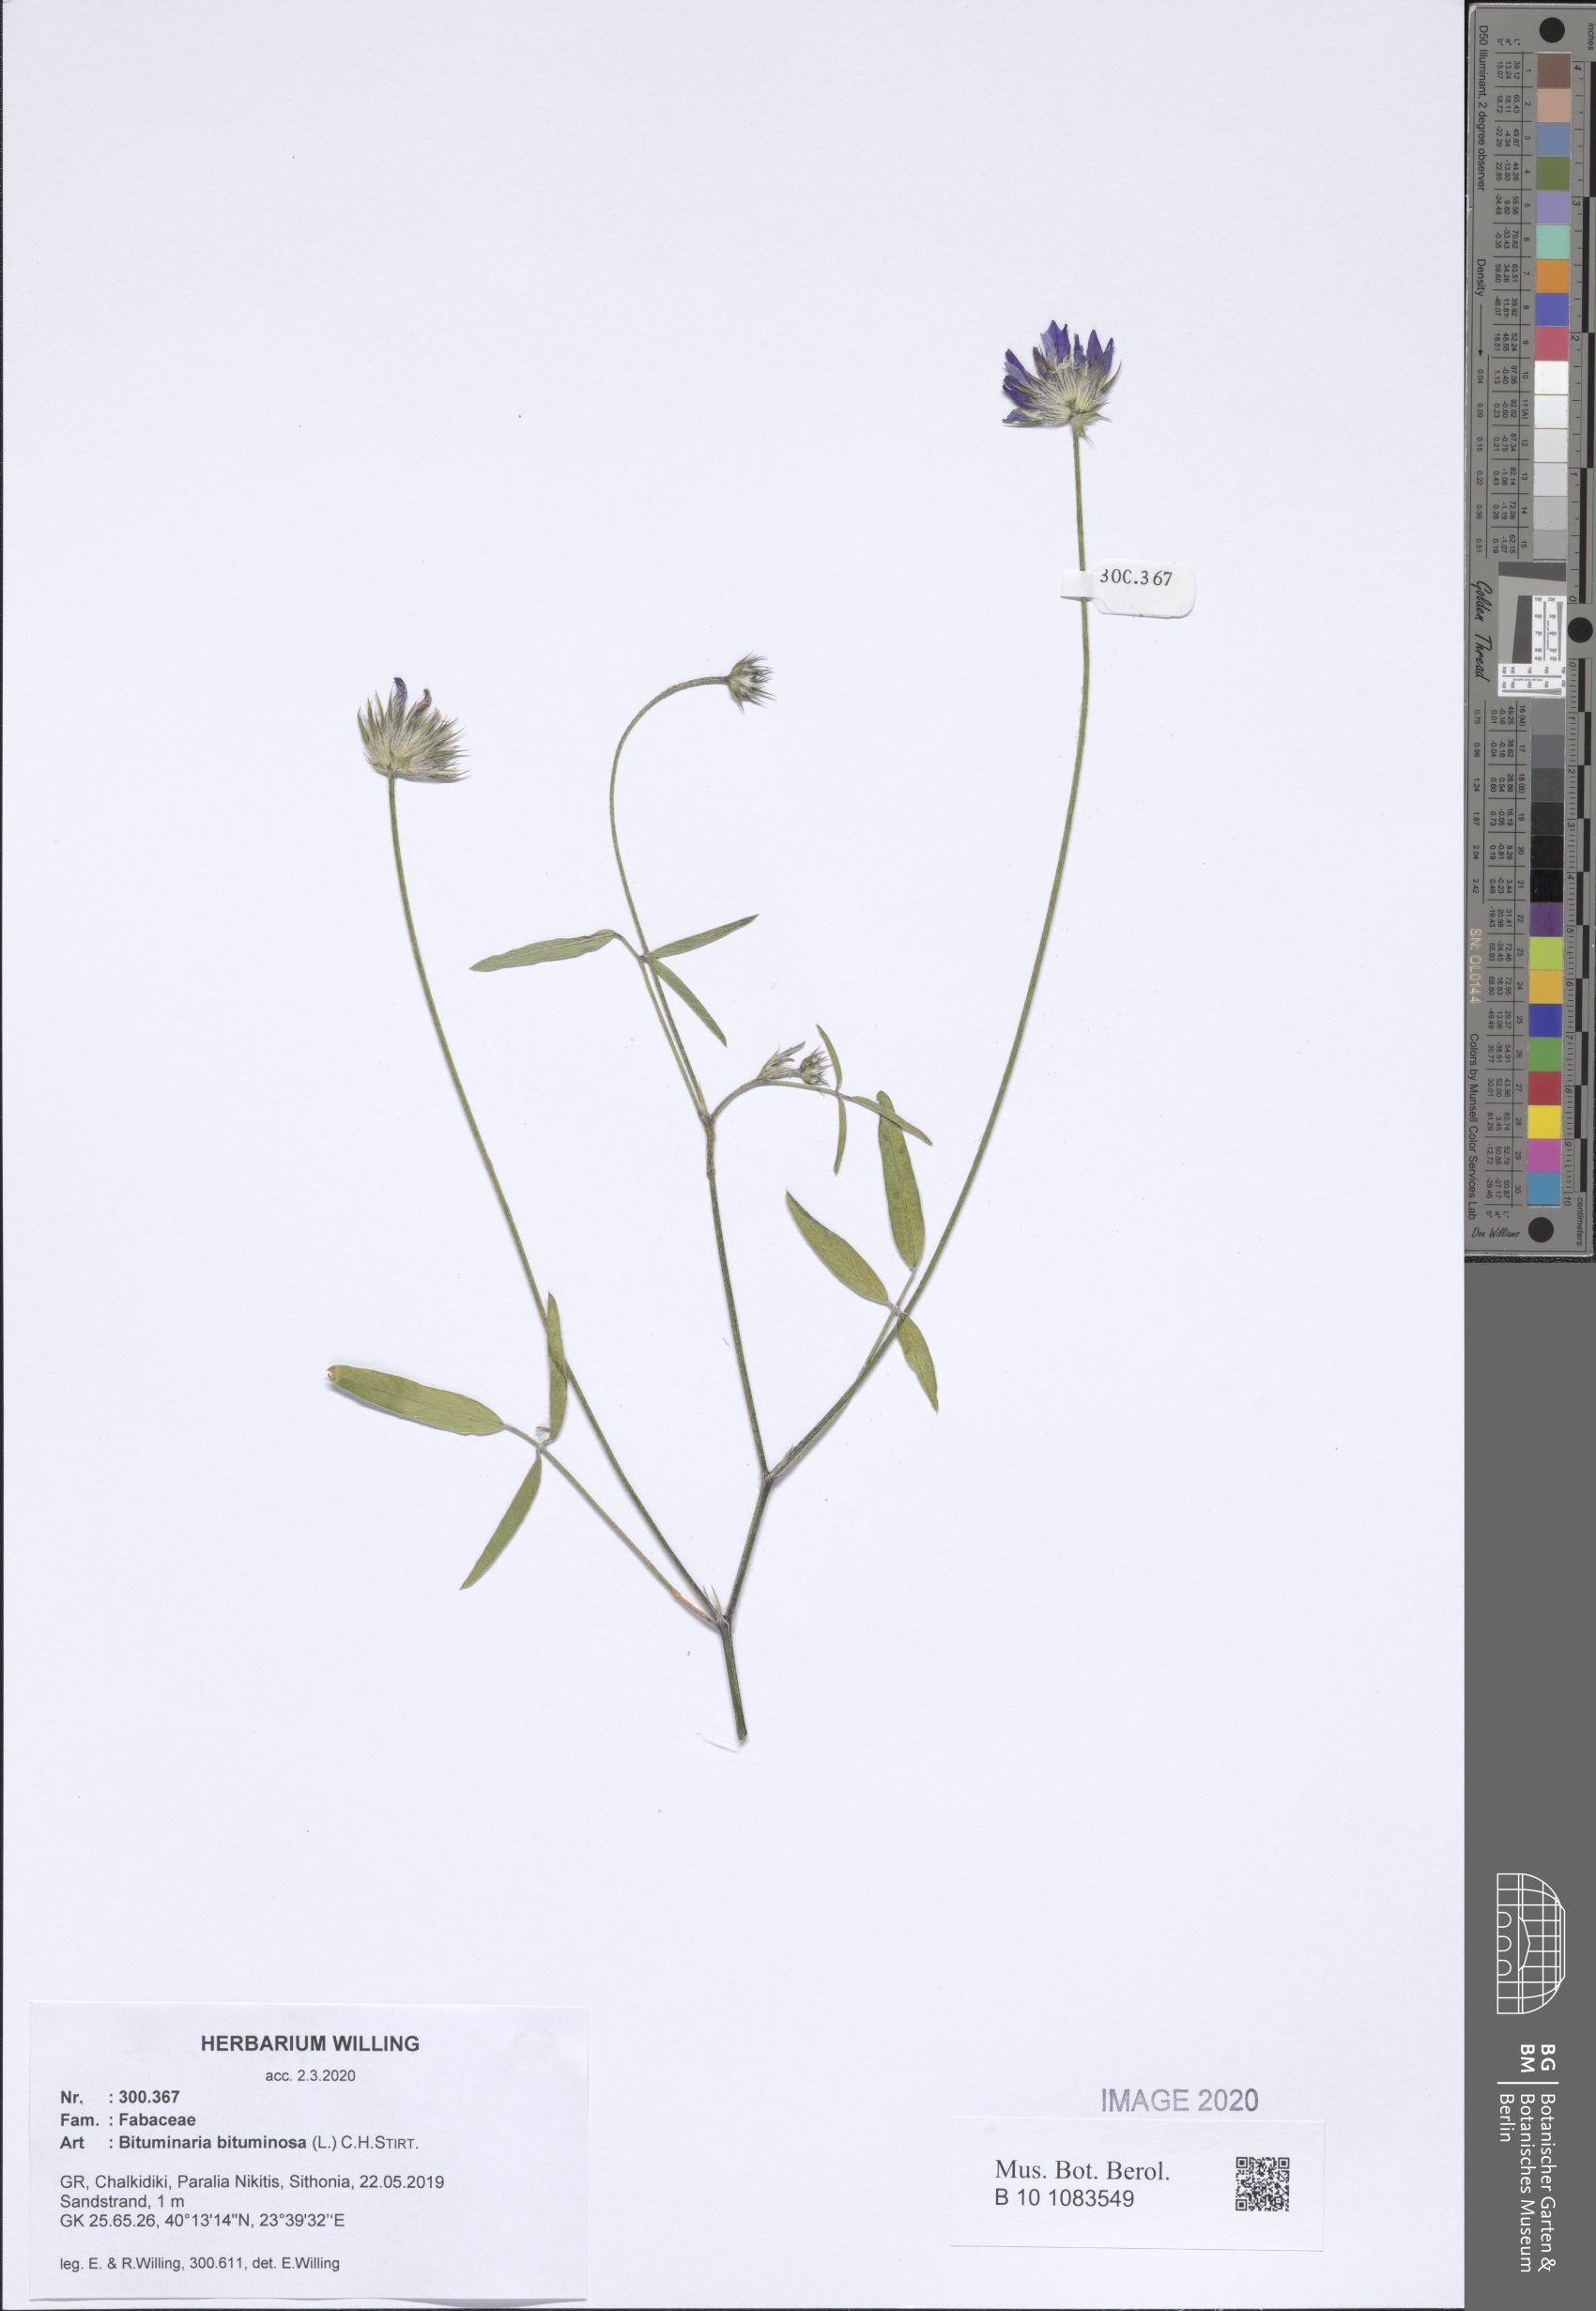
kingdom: Plantae
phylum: Tracheophyta
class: Magnoliopsida
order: Fabales
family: Fabaceae
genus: Bituminaria
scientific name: Bituminaria bituminosa
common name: Arabian pea
